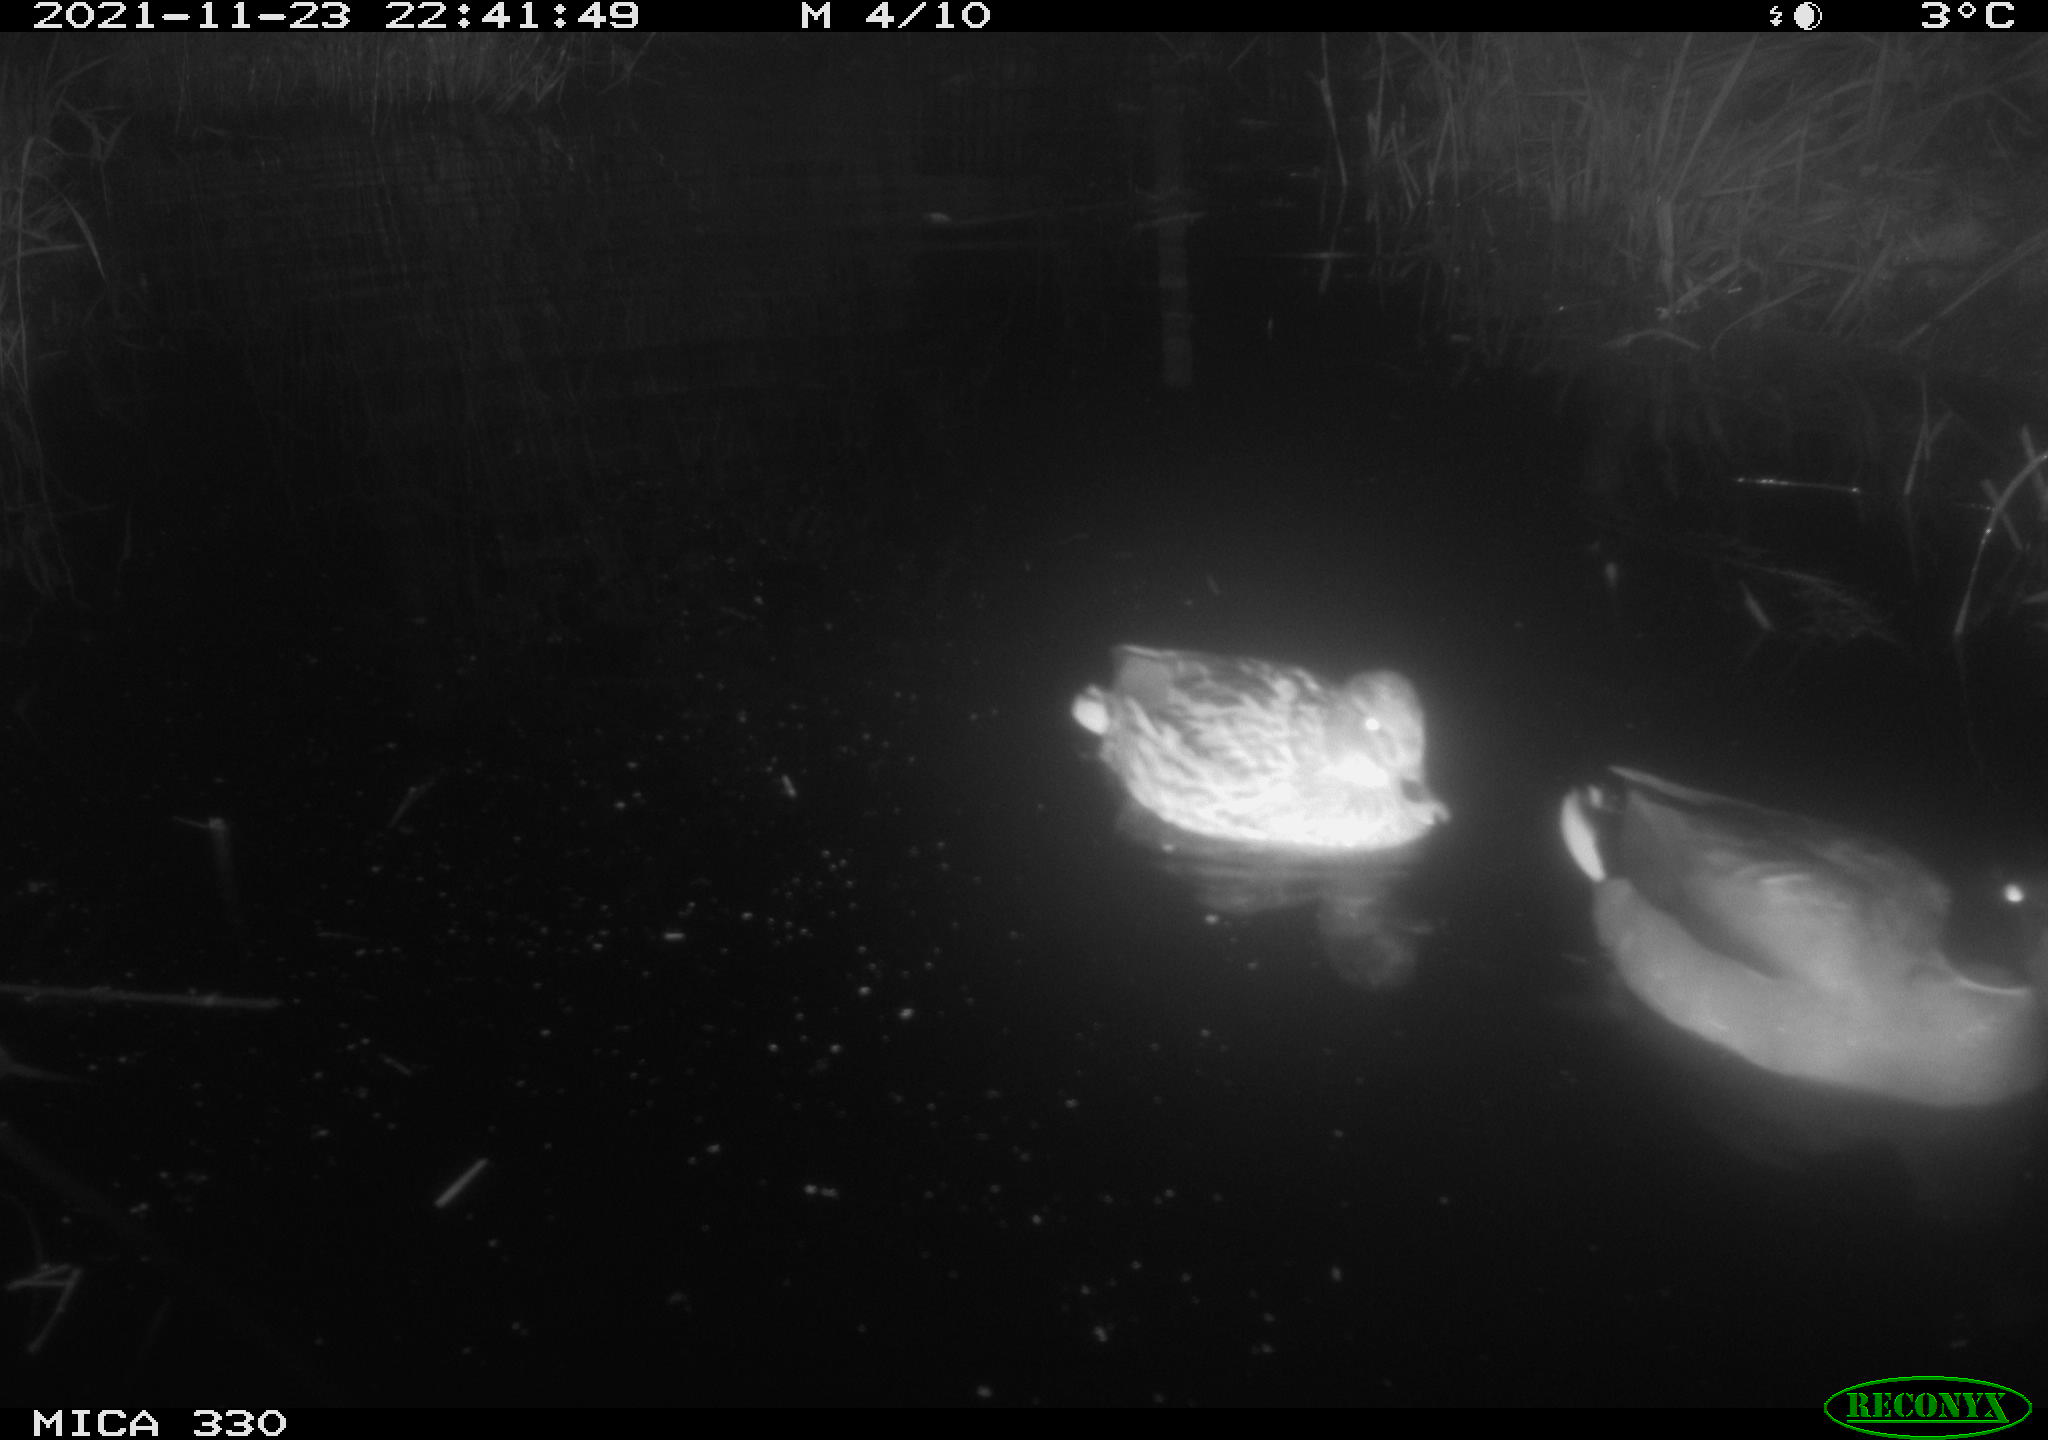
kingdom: Animalia
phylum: Chordata
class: Aves
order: Anseriformes
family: Anatidae
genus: Anas
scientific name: Anas platyrhynchos
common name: Mallard
